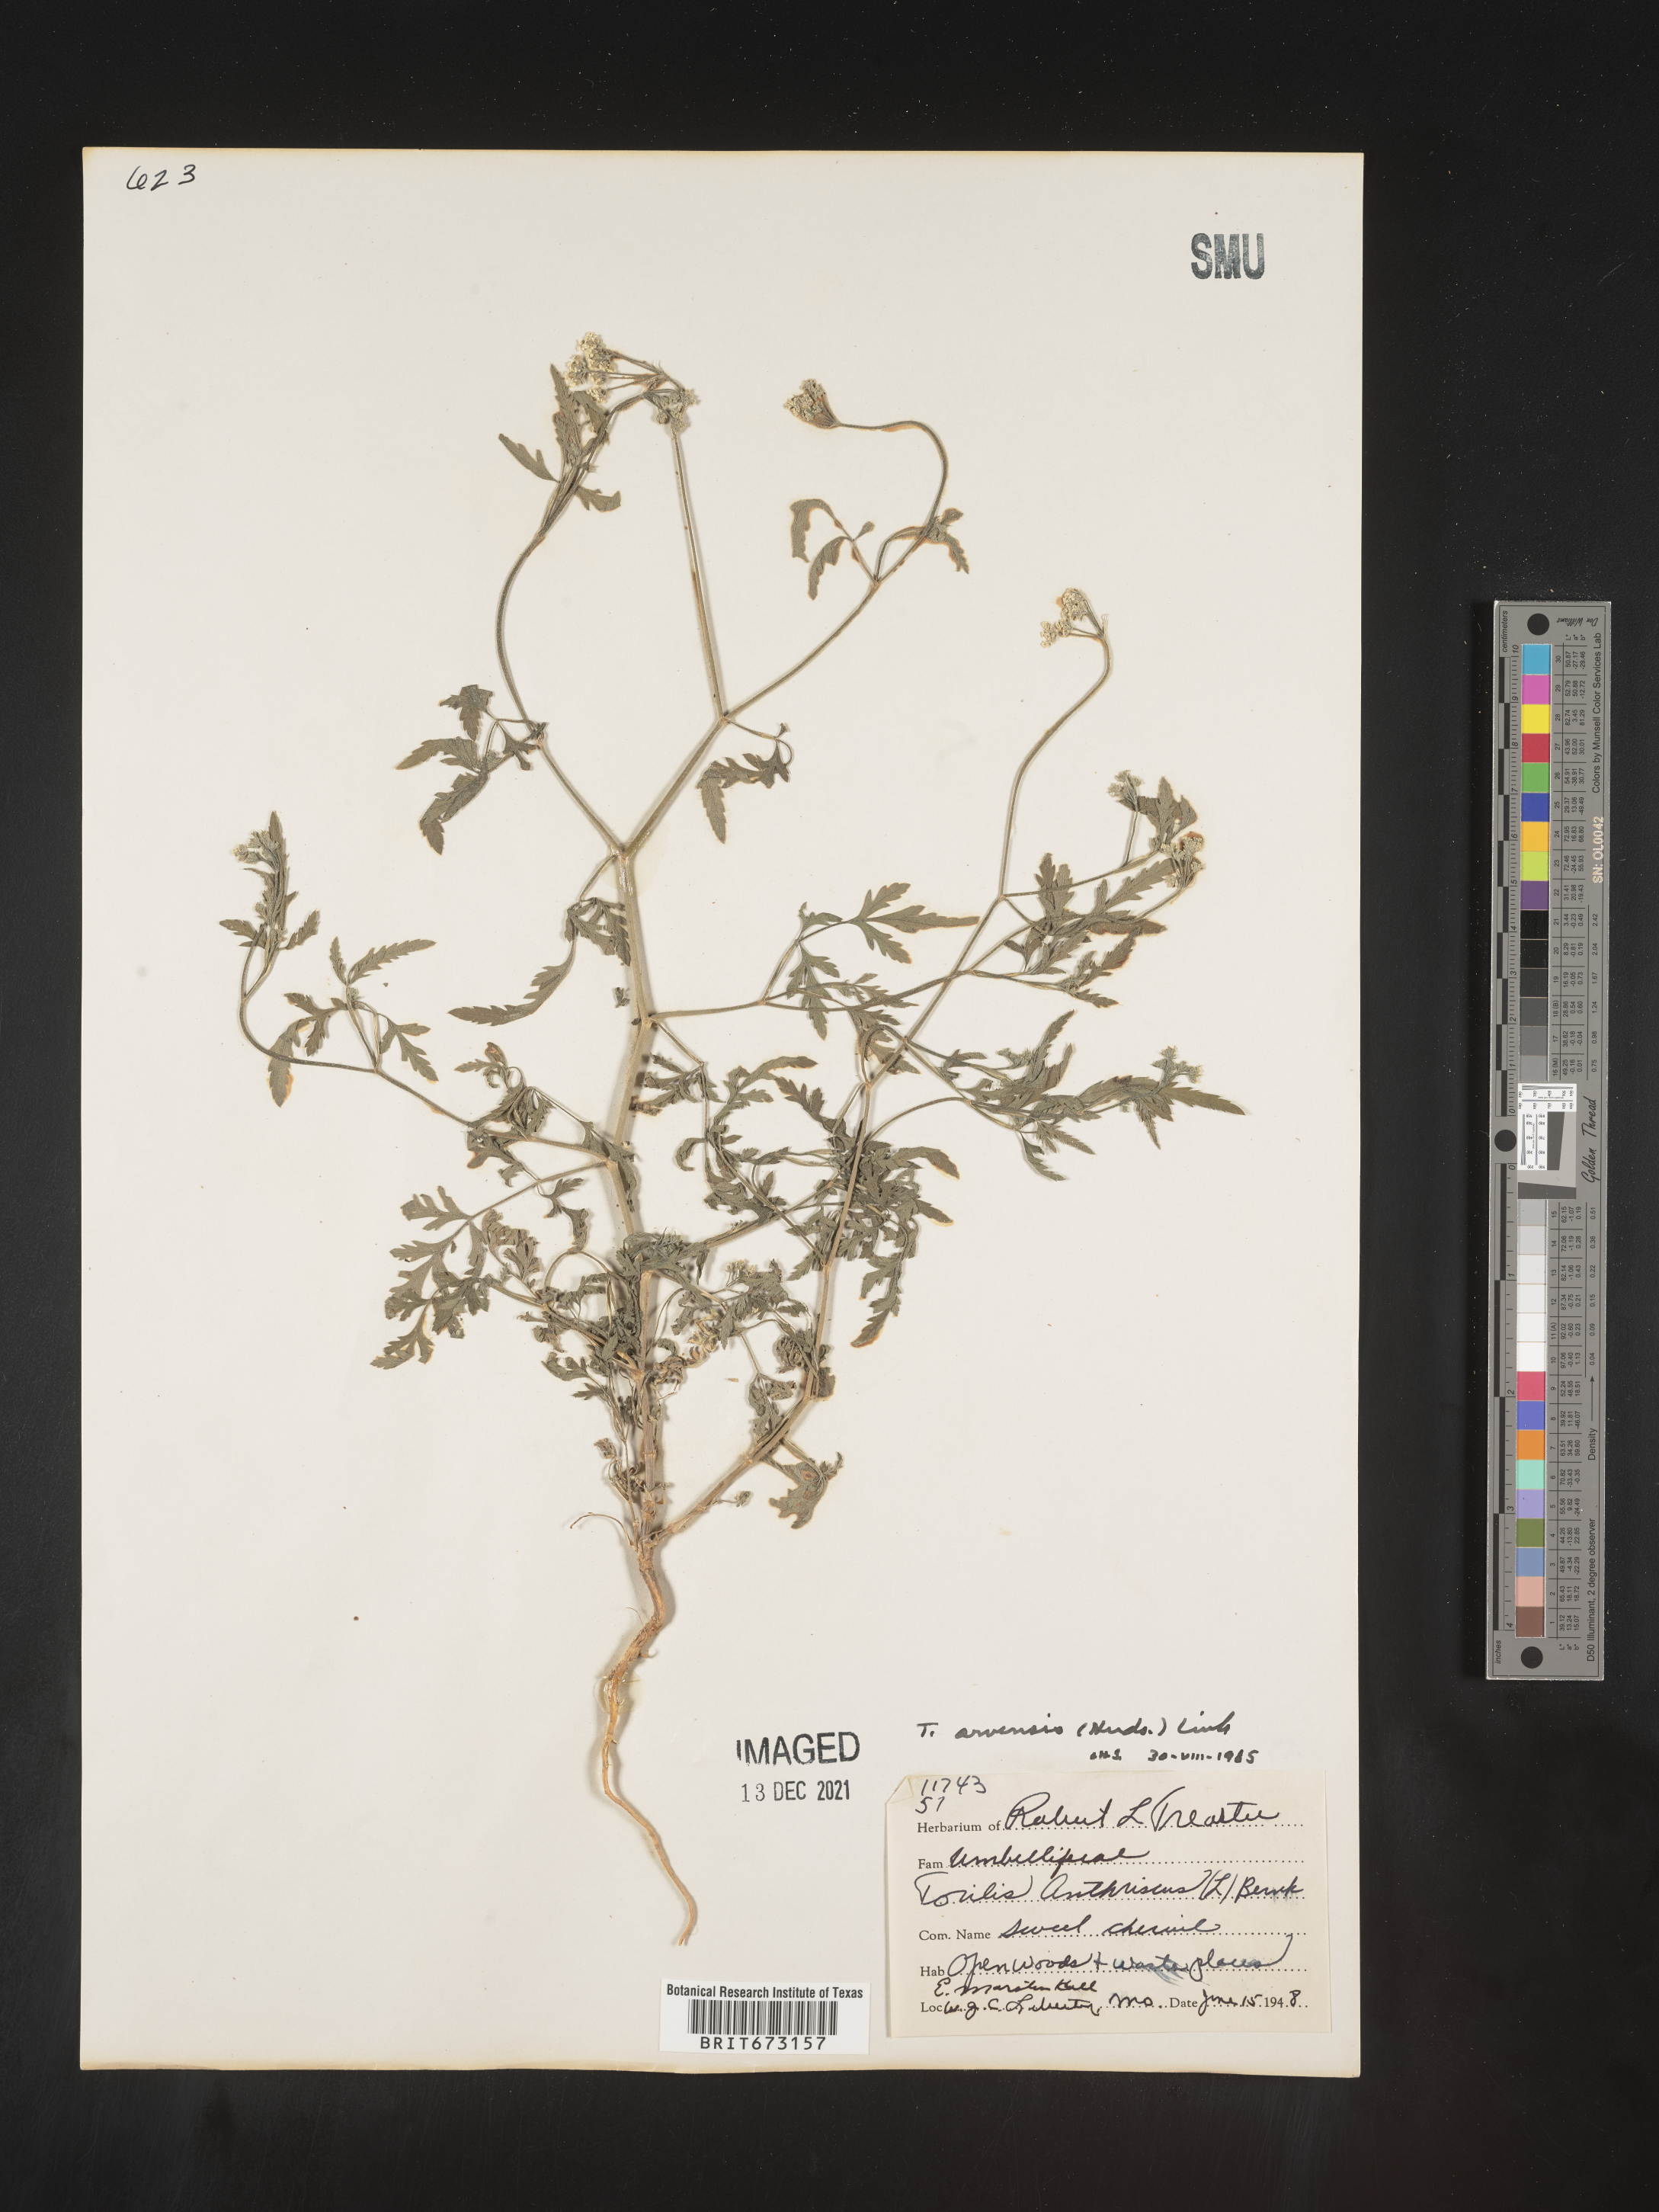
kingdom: Plantae
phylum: Tracheophyta
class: Magnoliopsida
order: Apiales
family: Apiaceae
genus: Torilis
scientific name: Torilis arvensis
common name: Spreading hedge-parsley
